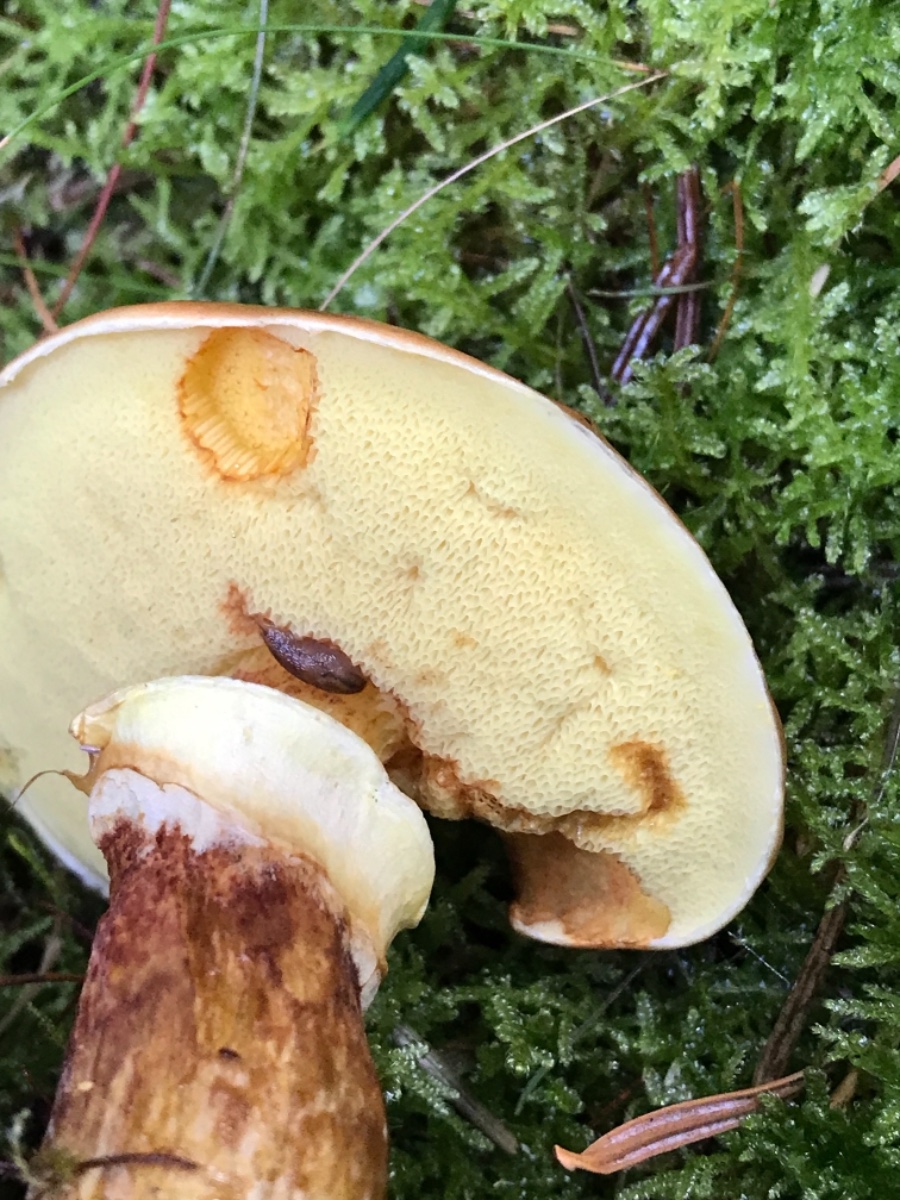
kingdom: Fungi
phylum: Basidiomycota
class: Agaricomycetes
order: Boletales
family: Suillaceae
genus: Suillus
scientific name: Suillus grevillei
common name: lærke-slimrørhat
